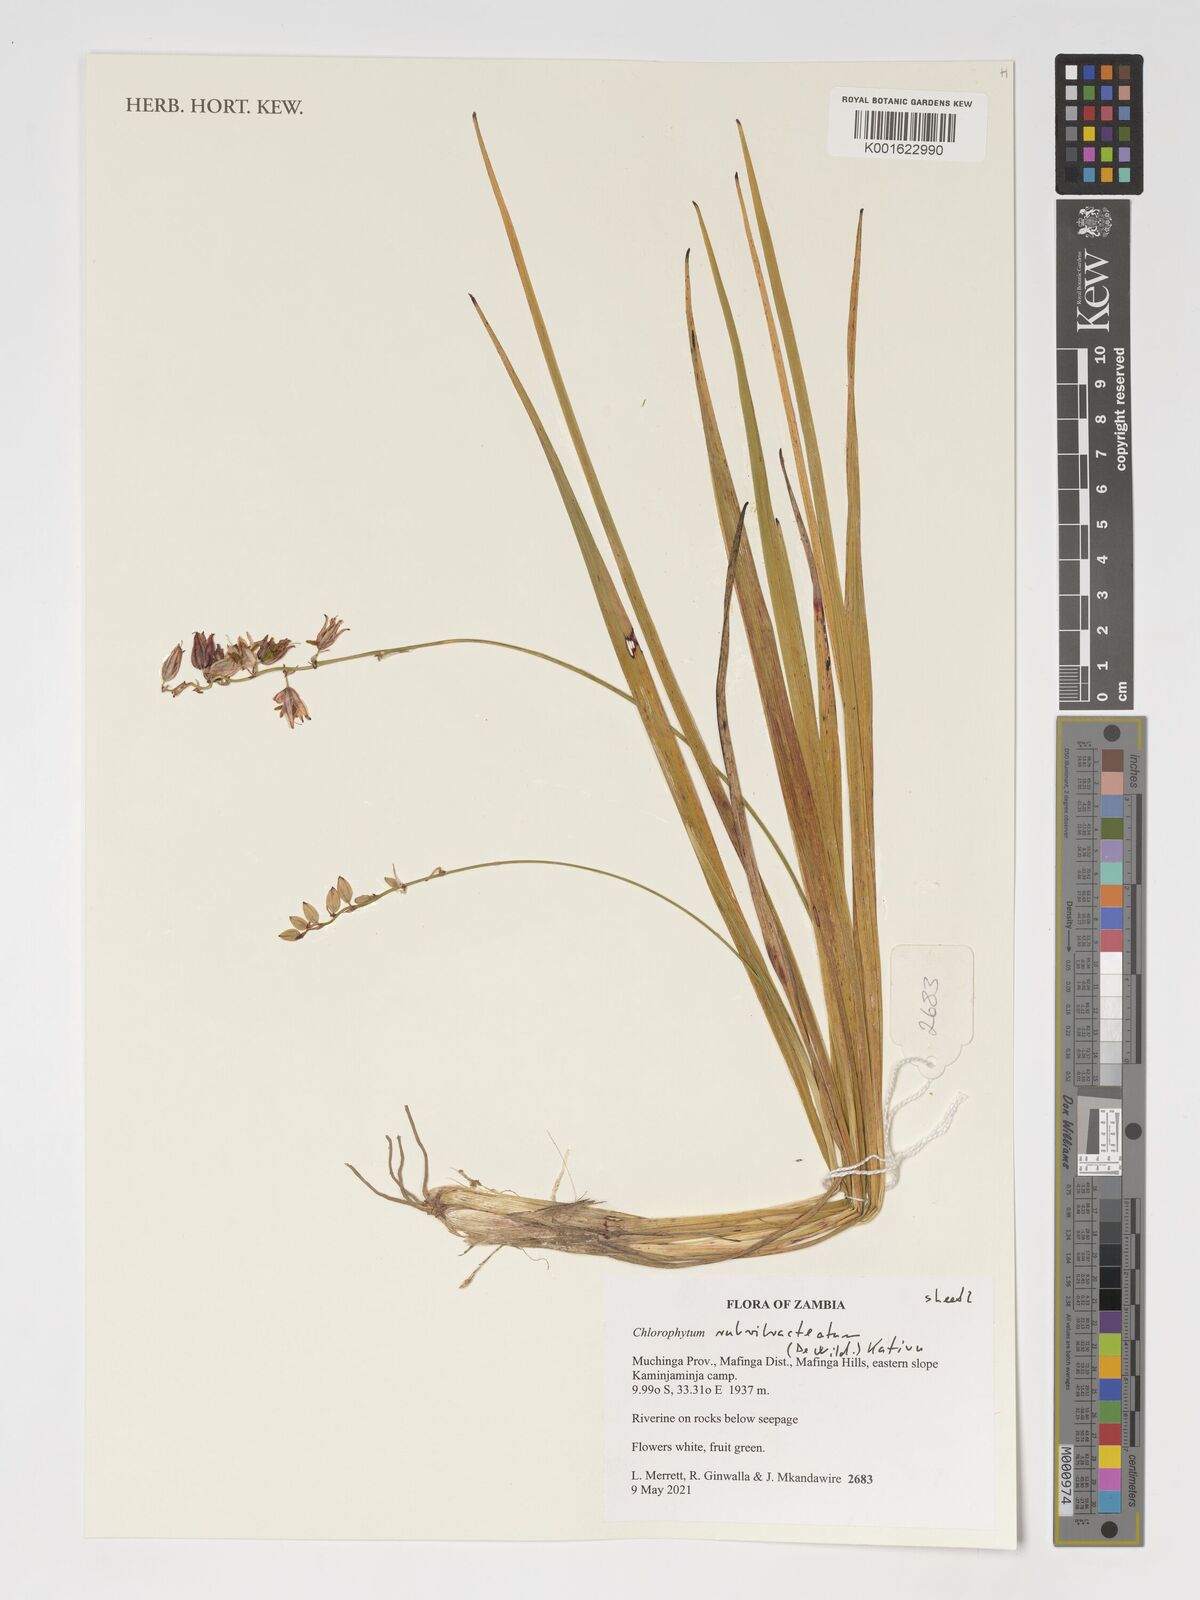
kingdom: Plantae
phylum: Tracheophyta
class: Liliopsida
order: Asparagales
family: Asparagaceae
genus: Chlorophytum
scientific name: Chlorophytum rubribracteatum
